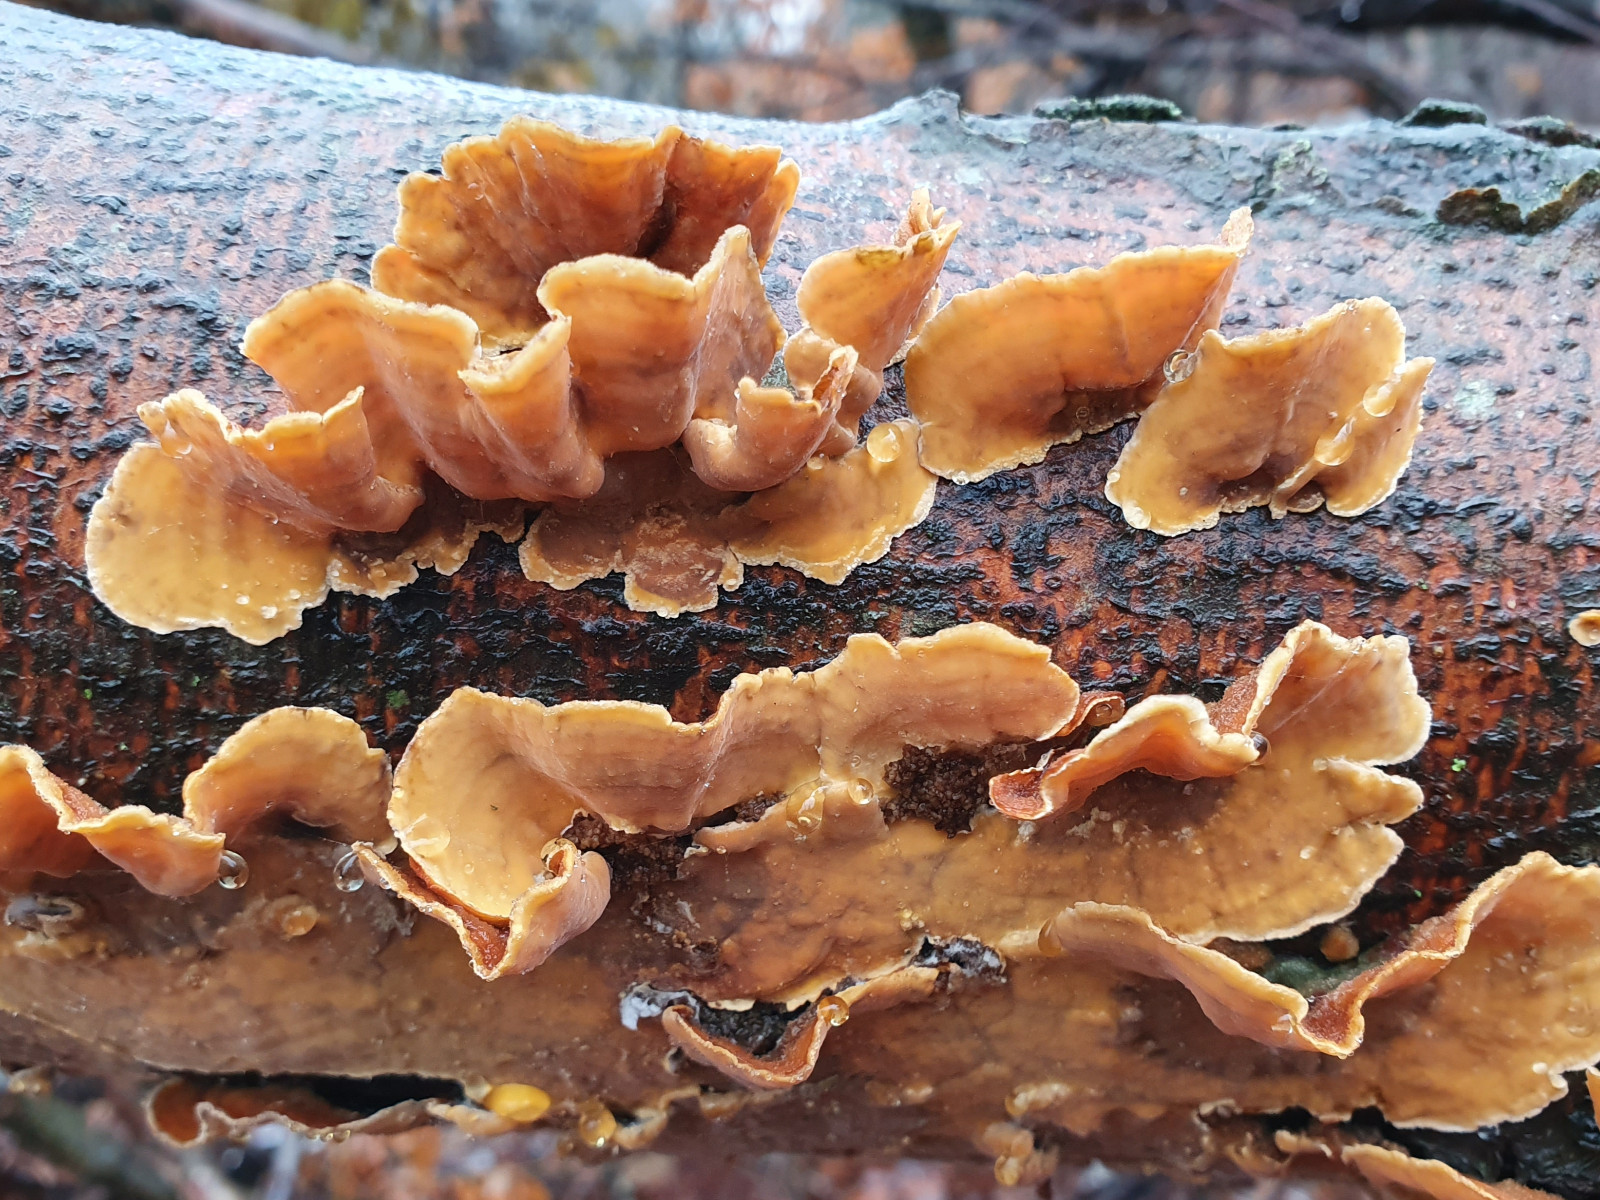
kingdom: Fungi
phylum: Basidiomycota
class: Agaricomycetes
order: Russulales
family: Stereaceae
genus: Stereum
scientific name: Stereum hirsutum
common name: håret lædersvamp
